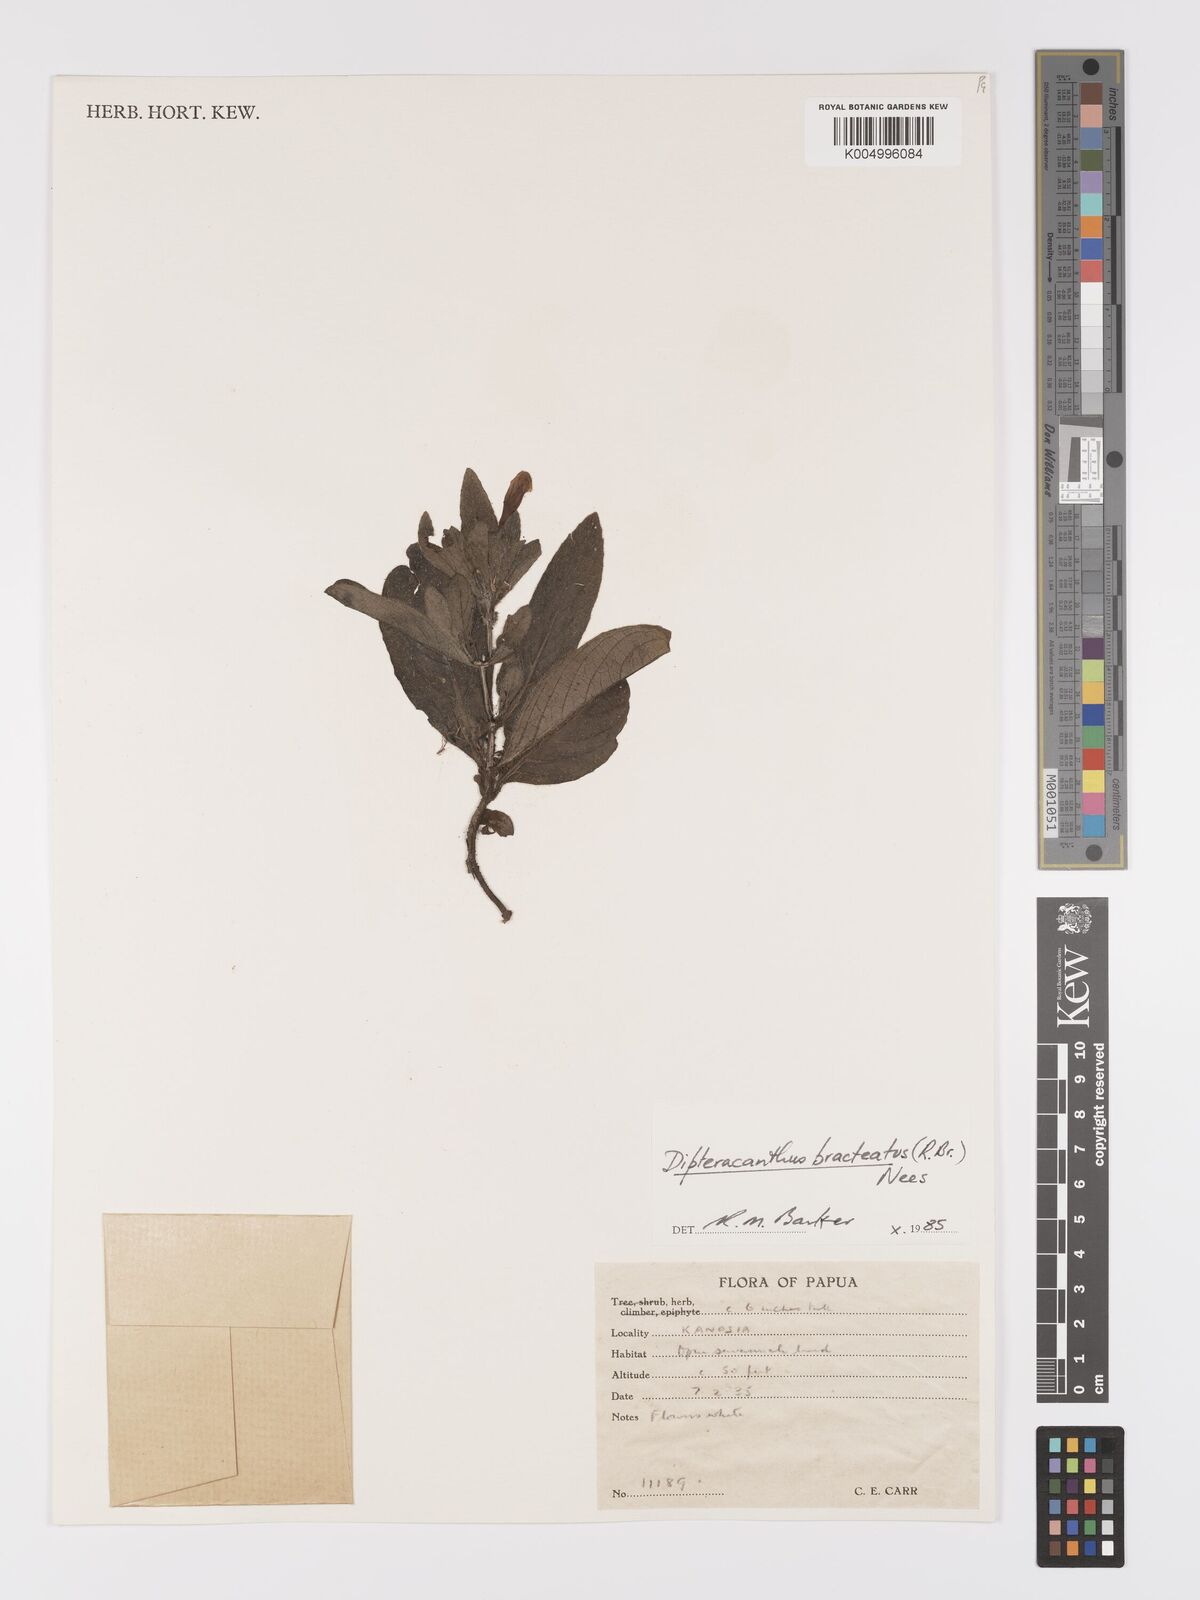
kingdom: Plantae
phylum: Tracheophyta
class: Magnoliopsida
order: Lamiales
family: Acanthaceae
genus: Ruellia
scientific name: Ruellia
